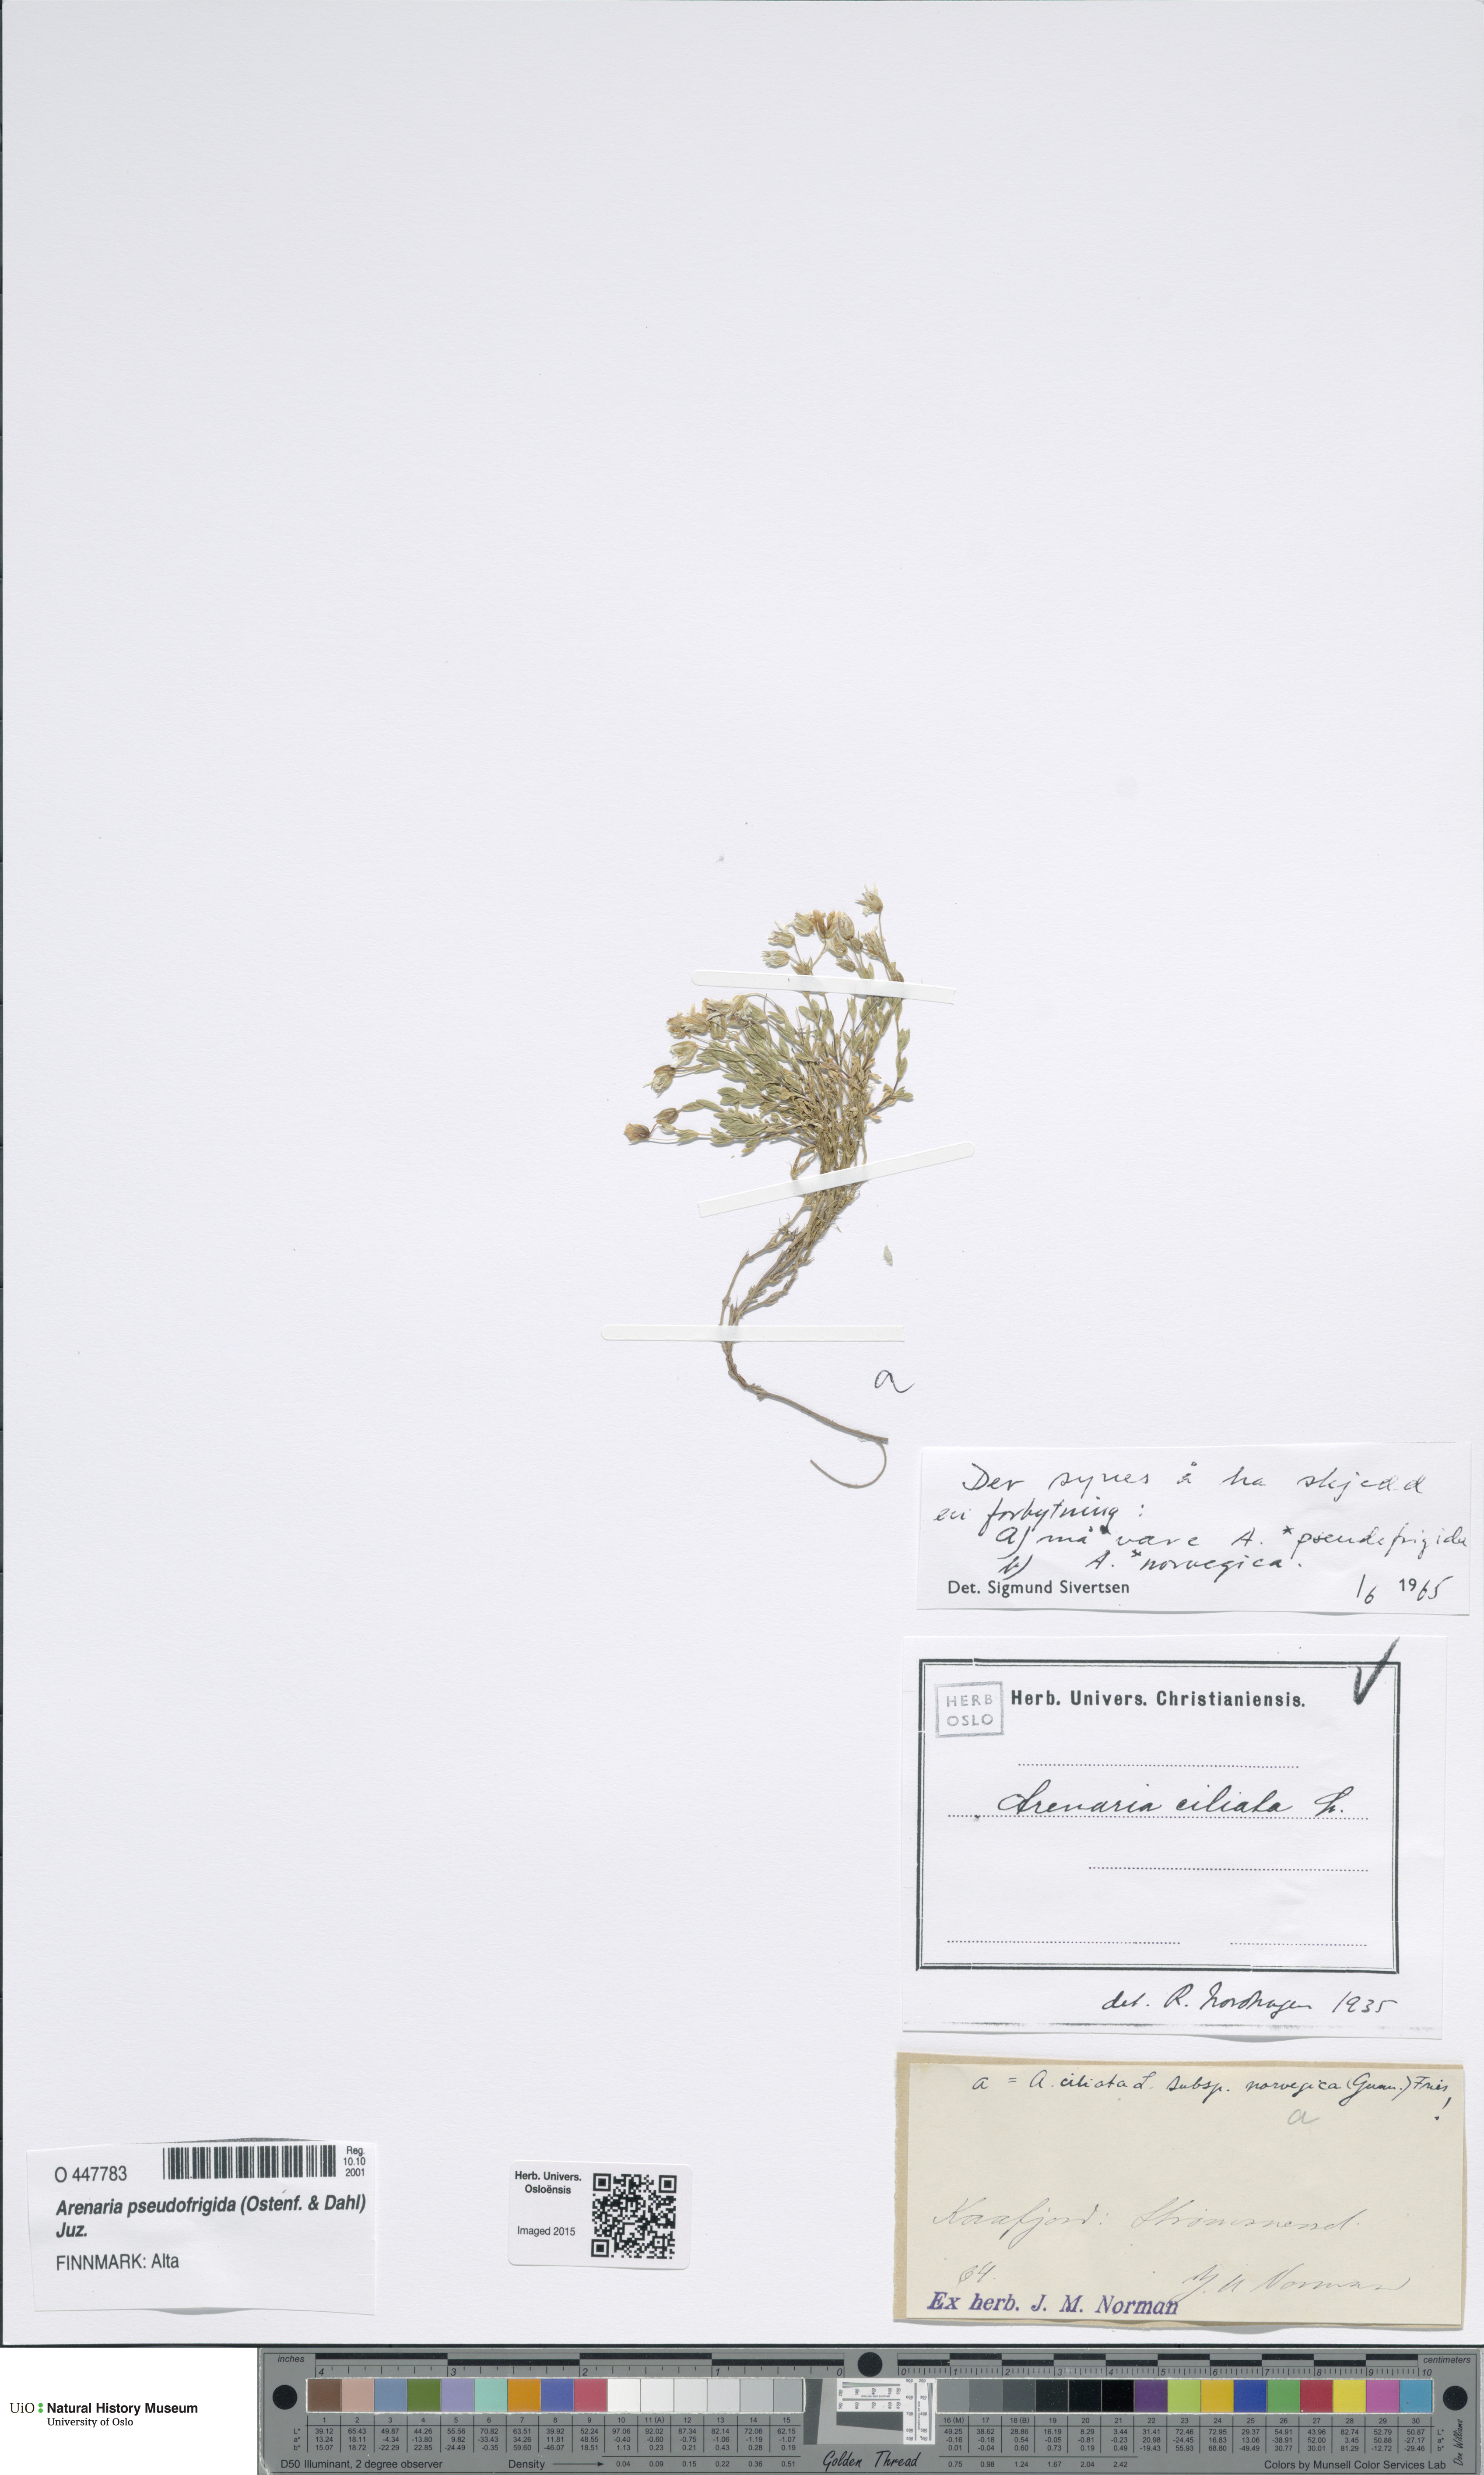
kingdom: Plantae
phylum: Tracheophyta
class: Magnoliopsida
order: Caryophyllales
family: Caryophyllaceae
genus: Arenaria
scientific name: Arenaria pseudofrigida
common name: Tundra sandwort
